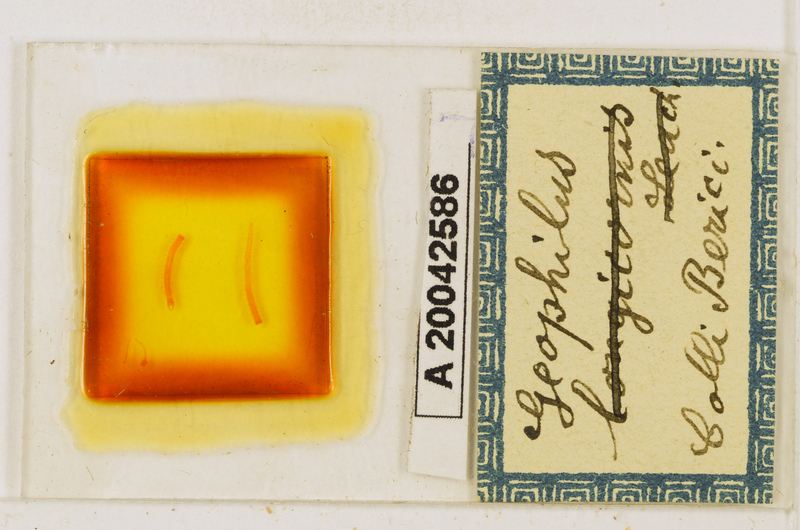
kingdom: Animalia
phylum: Arthropoda
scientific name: Arthropoda
